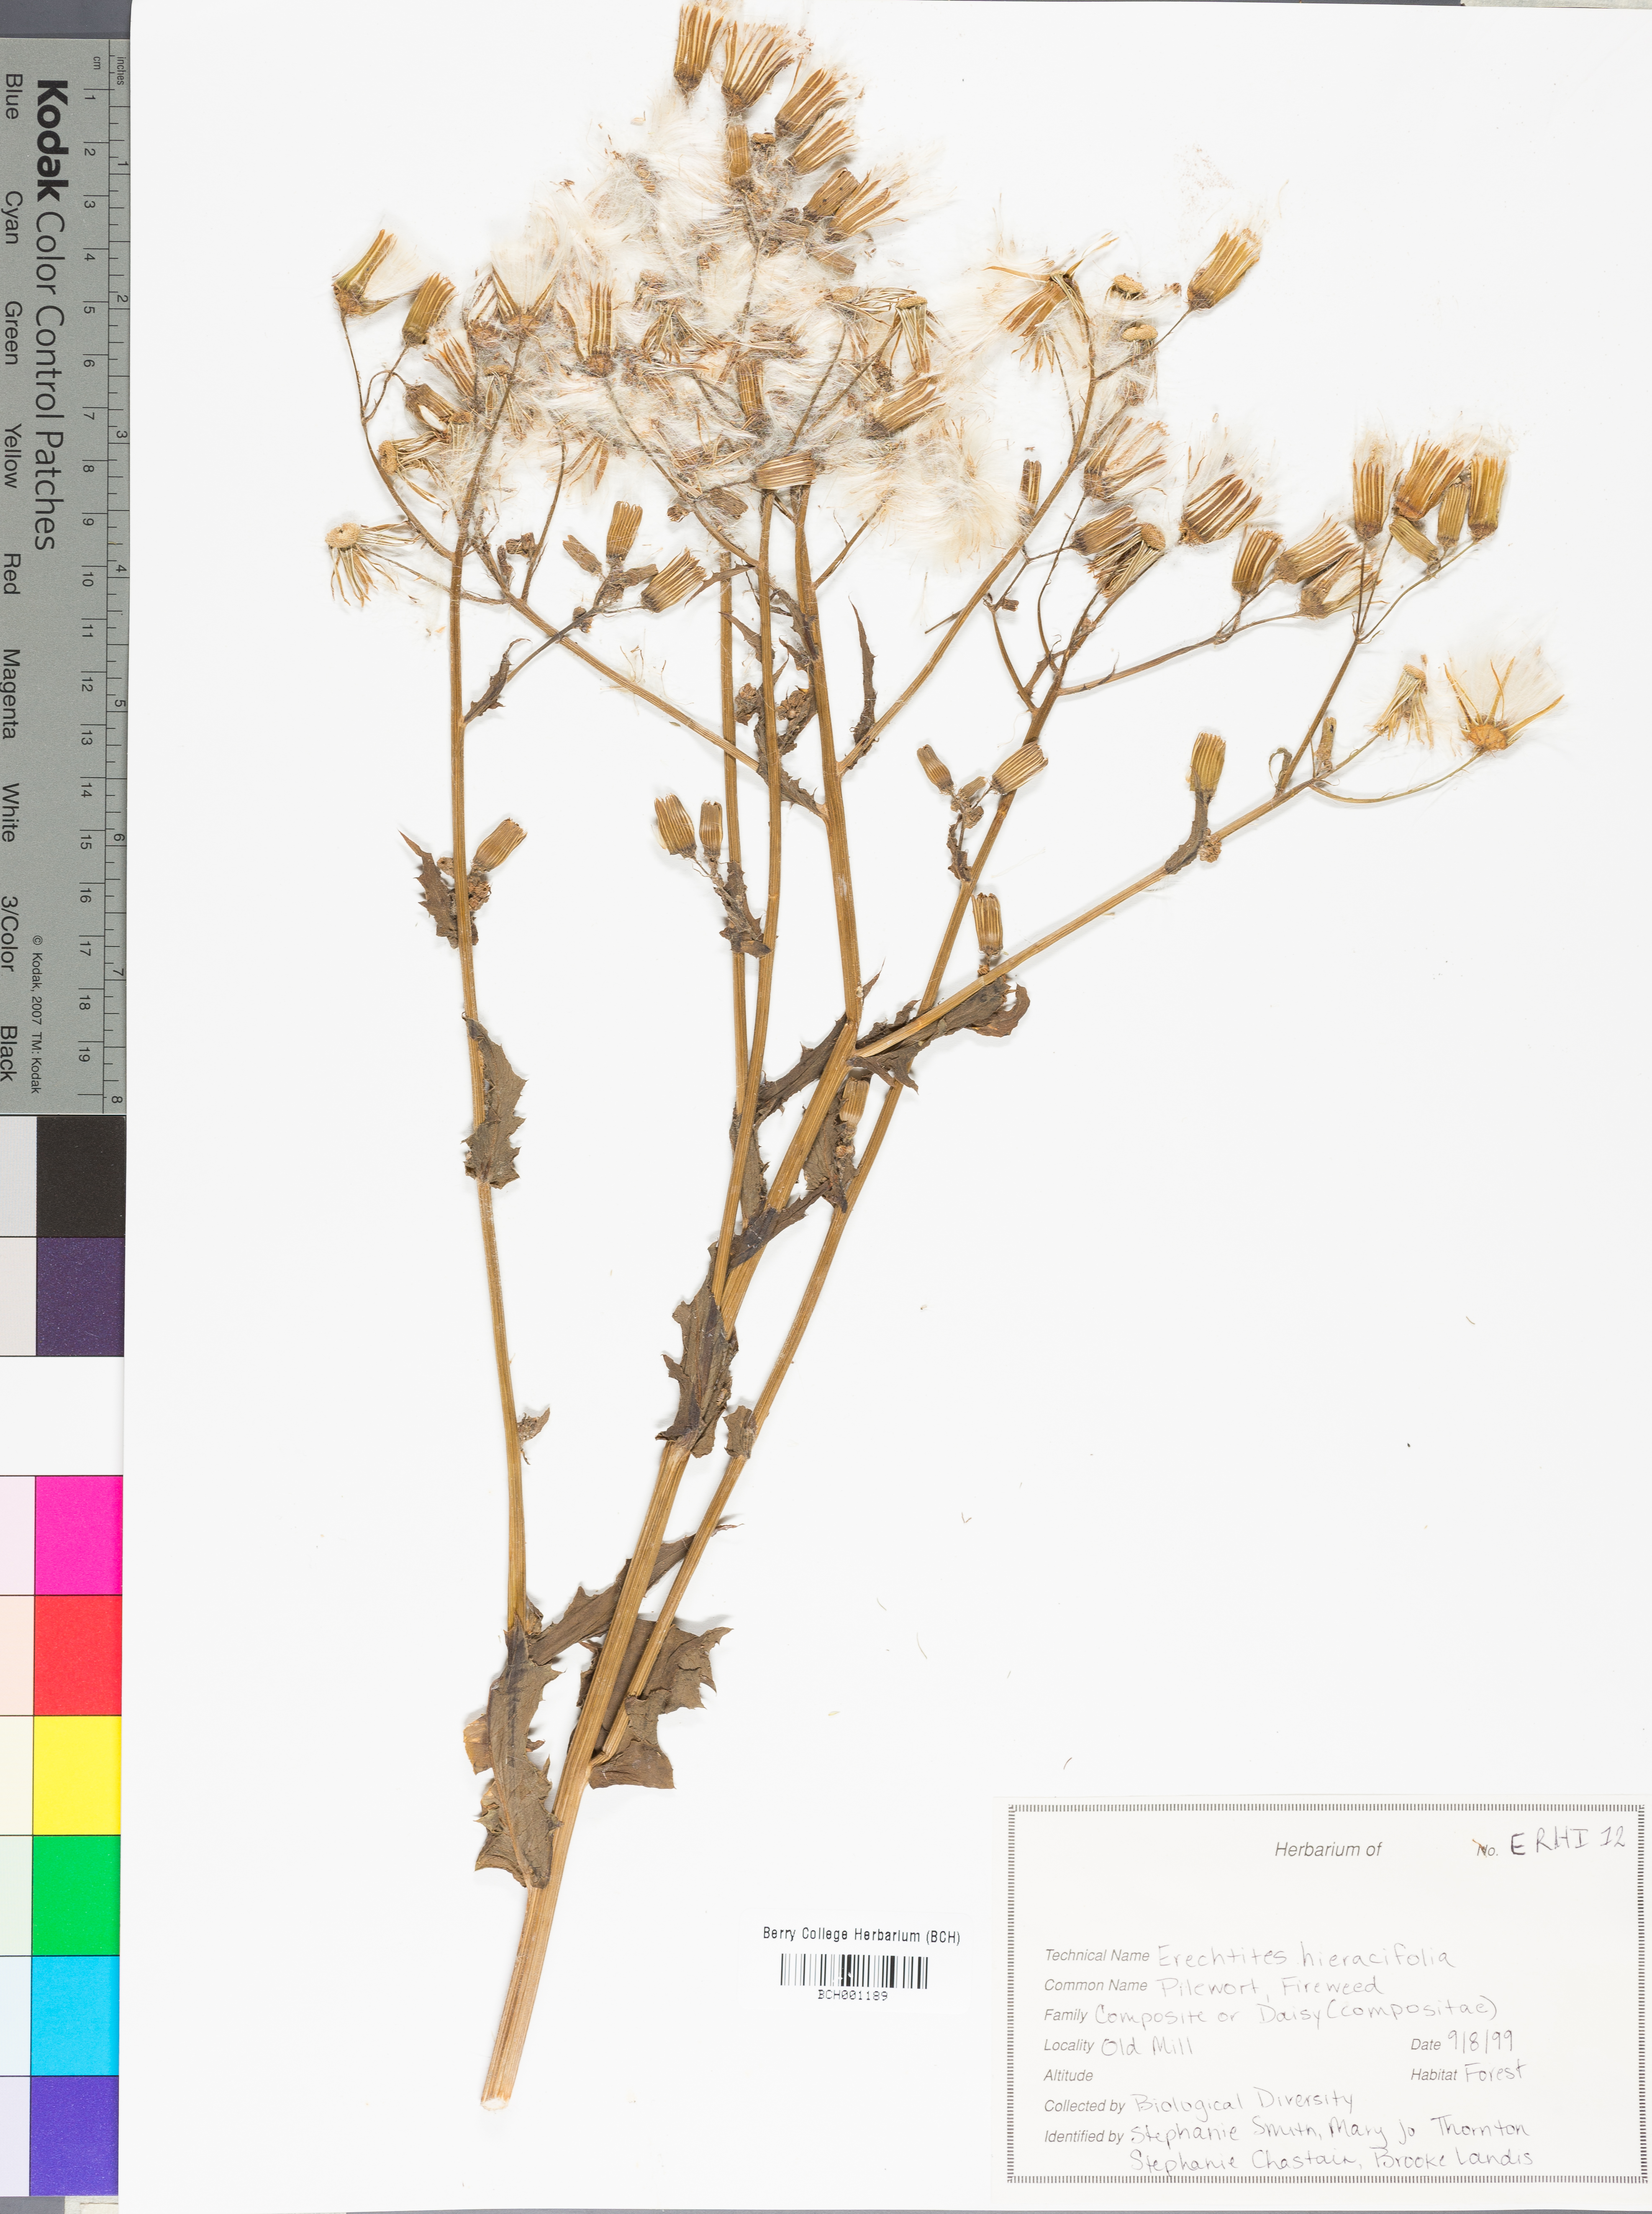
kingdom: Plantae
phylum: Tracheophyta
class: Magnoliopsida
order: Asterales
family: Asteraceae
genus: Erechtites
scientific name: Erechtites hieraciifolius
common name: American burnweed
